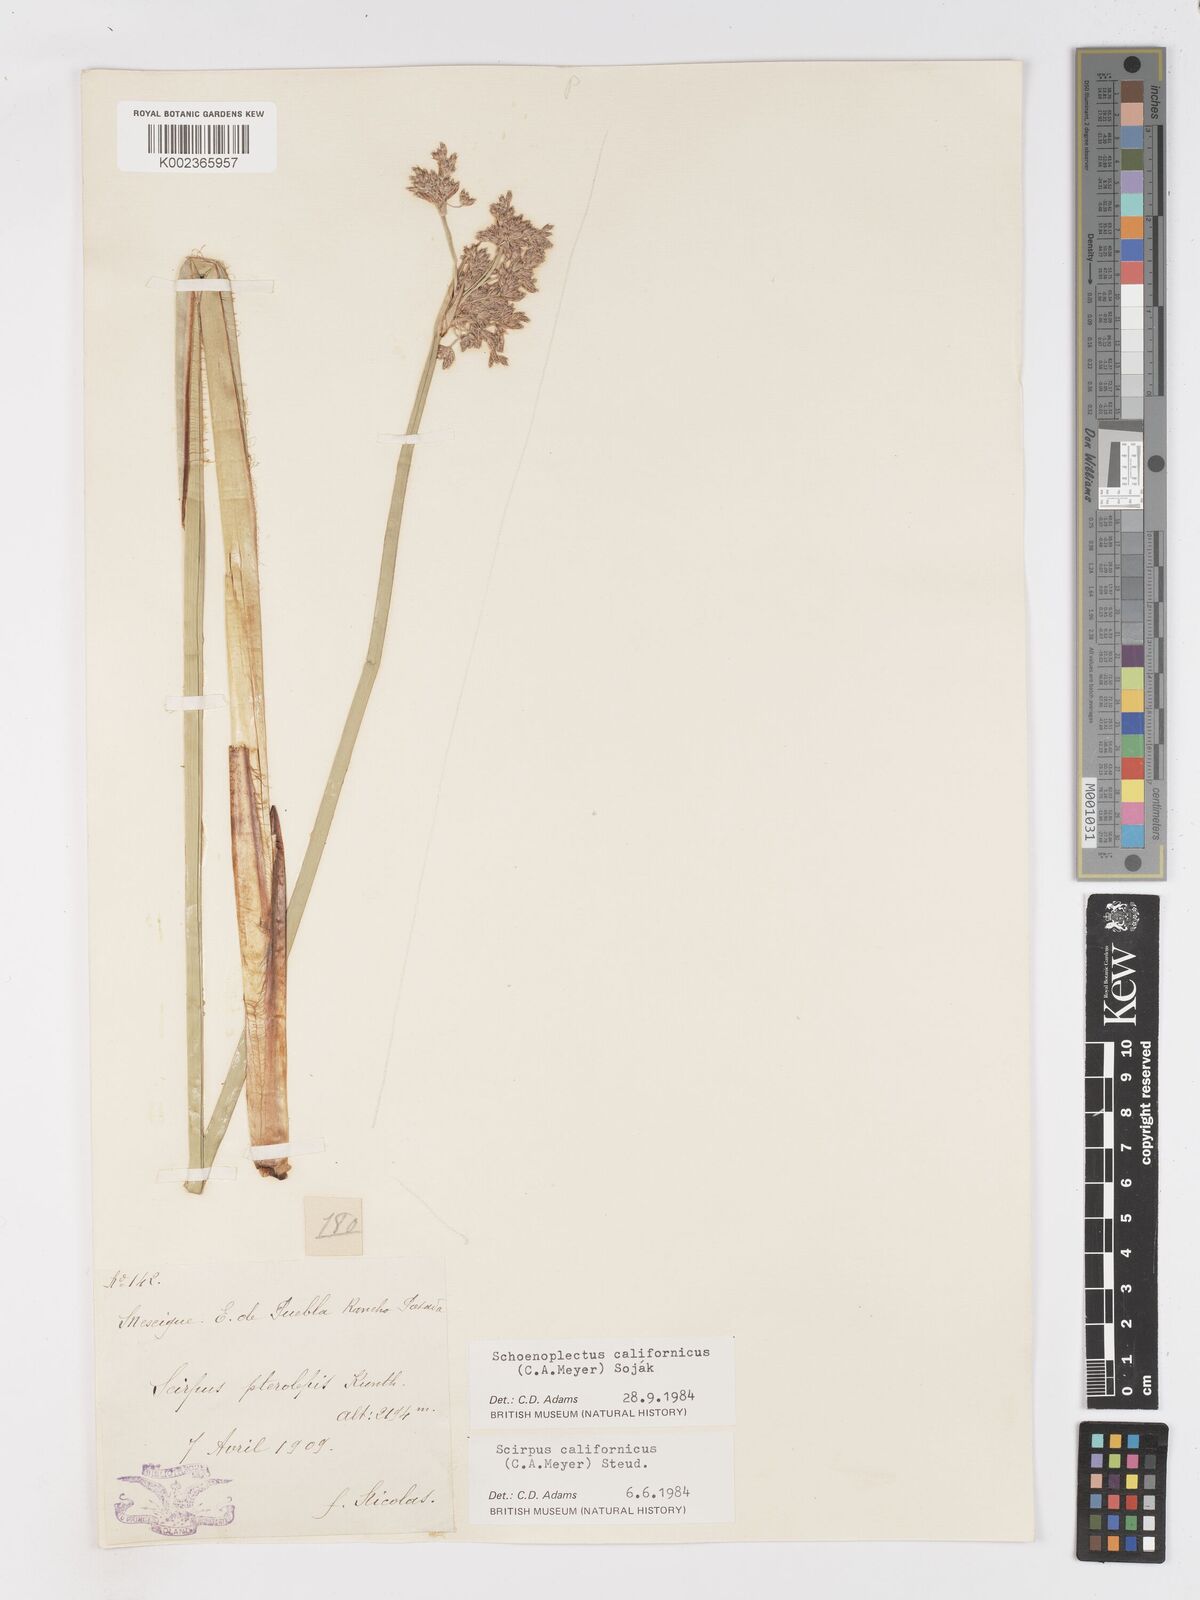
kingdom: Plantae
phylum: Tracheophyta
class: Liliopsida
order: Poales
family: Cyperaceae
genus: Schoenoplectus
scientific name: Schoenoplectus californicus
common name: California bulrush
